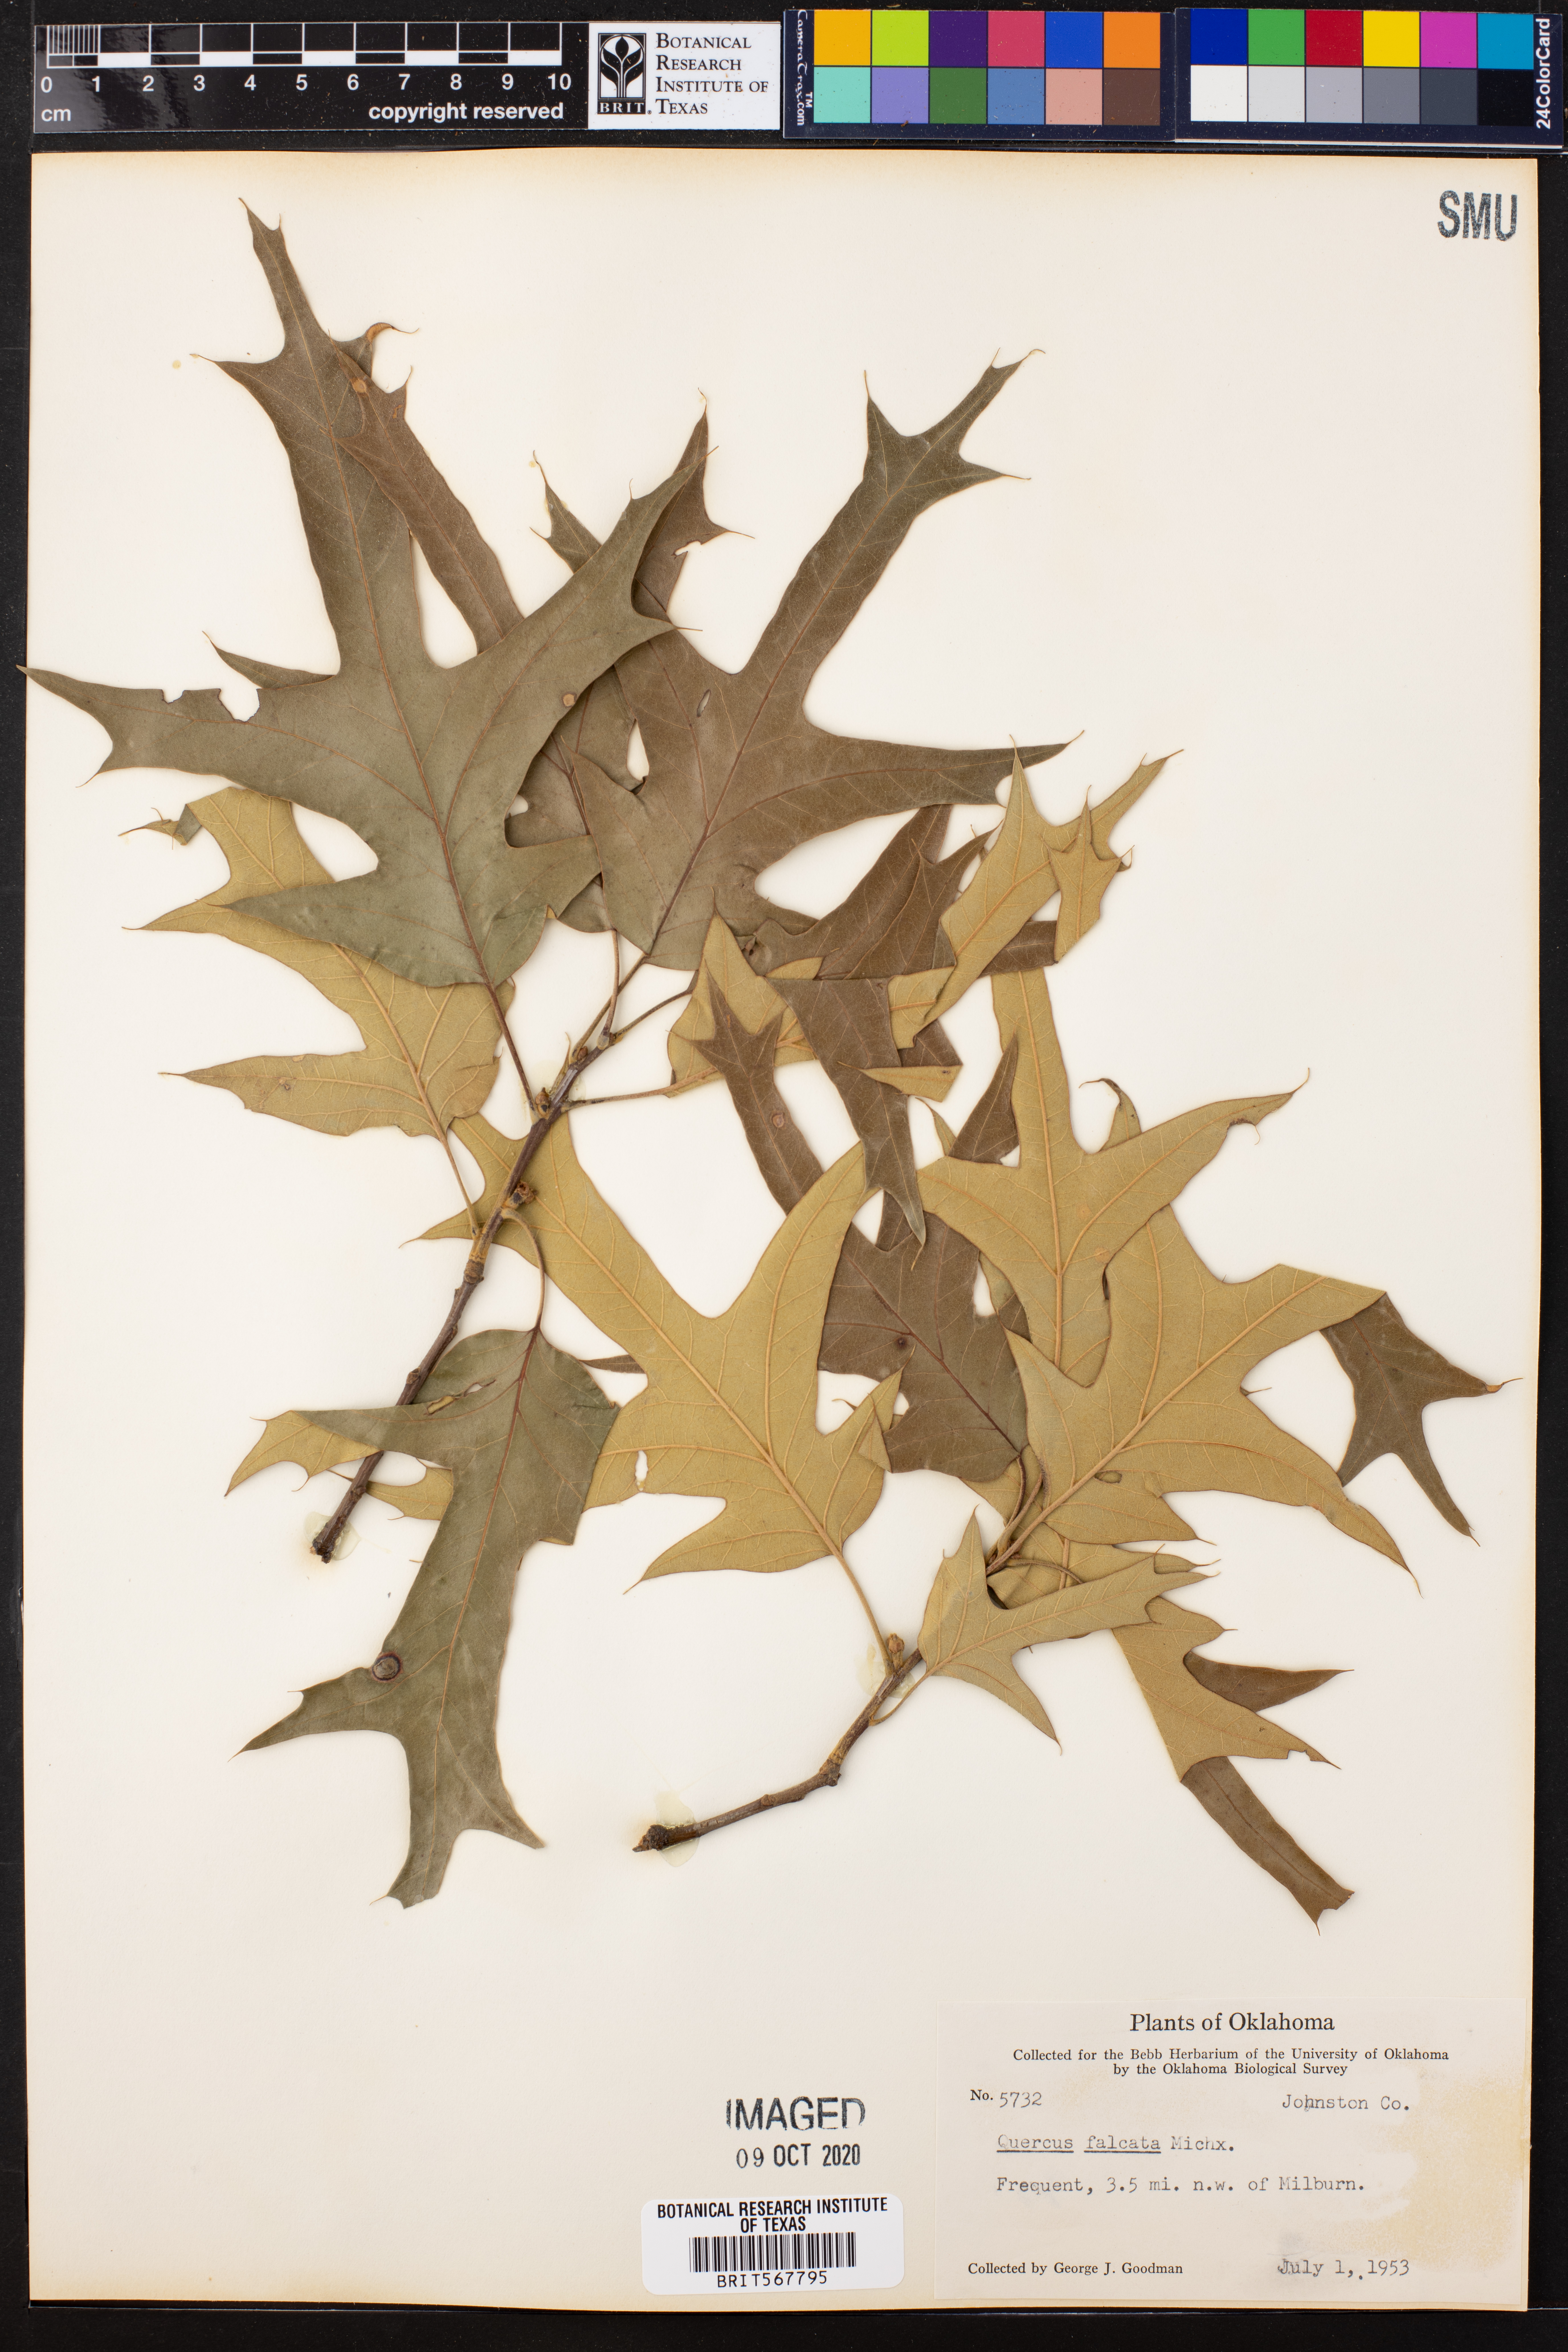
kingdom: Plantae
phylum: Tracheophyta
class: Magnoliopsida
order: Fagales
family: Fagaceae
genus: Quercus
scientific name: Quercus falcata
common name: Southern red oak
